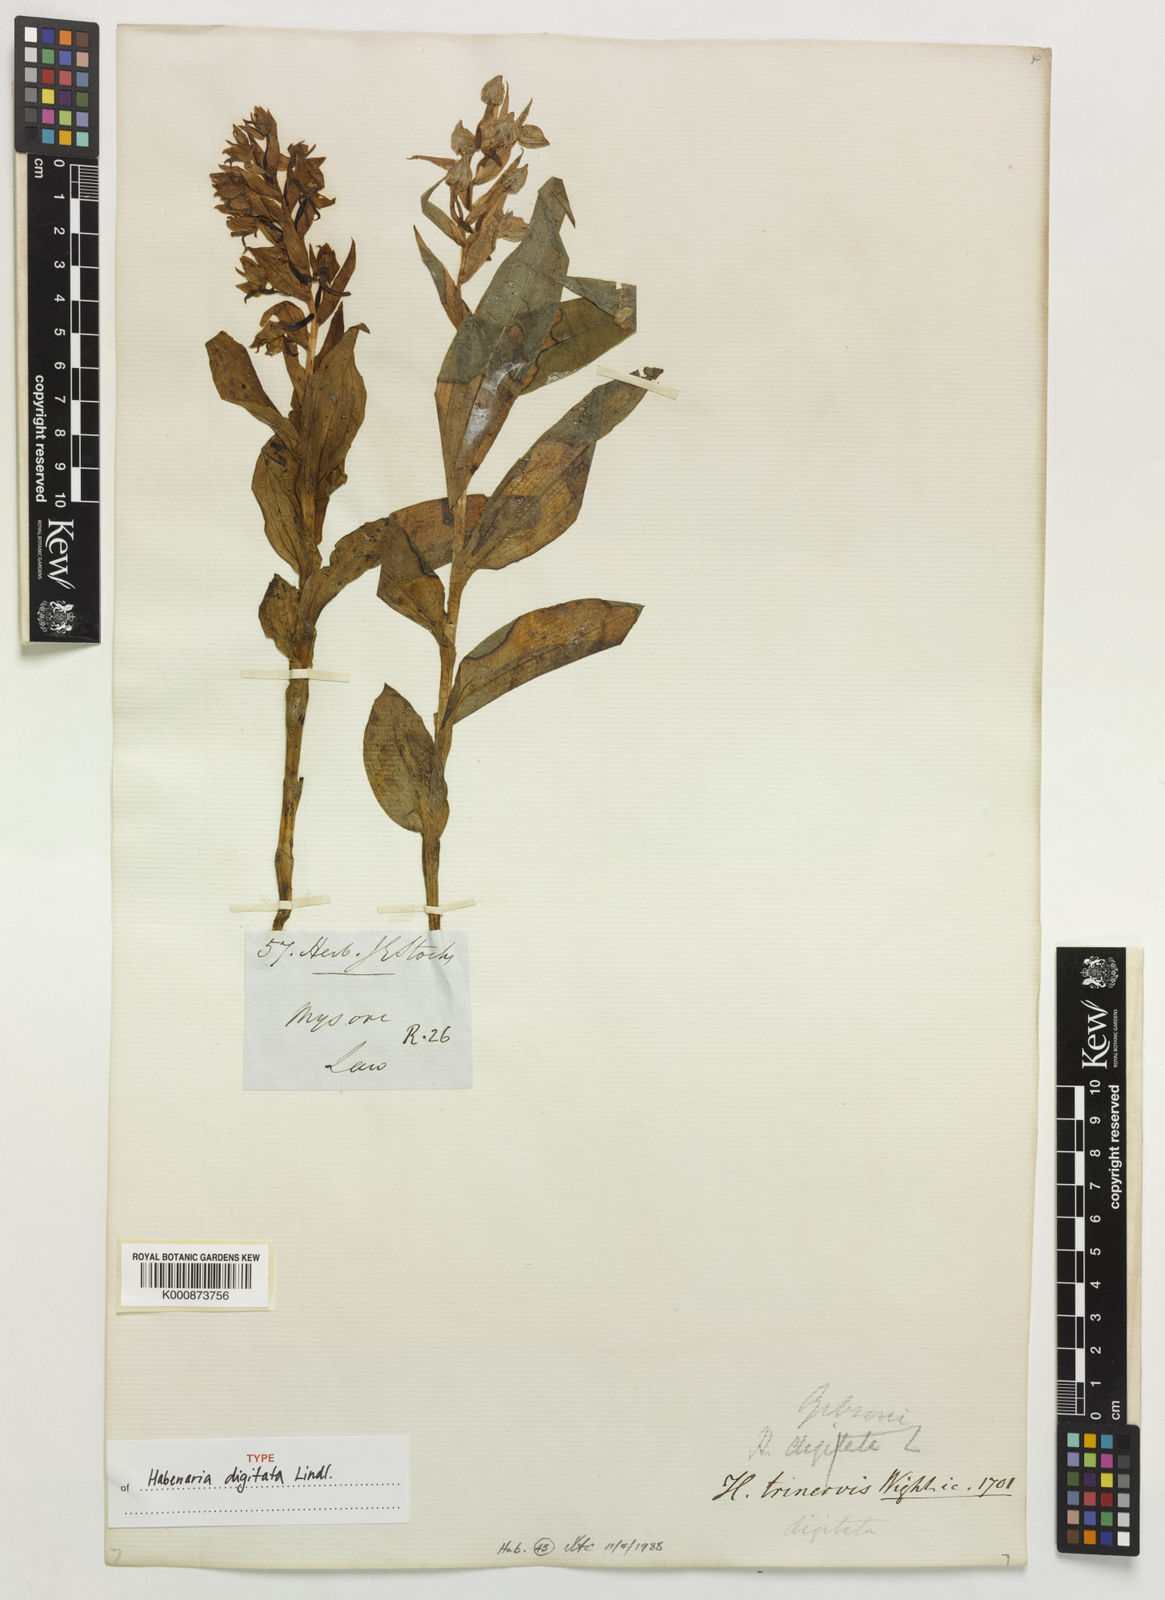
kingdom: Plantae
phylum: Tracheophyta
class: Liliopsida
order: Asparagales
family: Orchidaceae
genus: Habenaria
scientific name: Habenaria digitata
